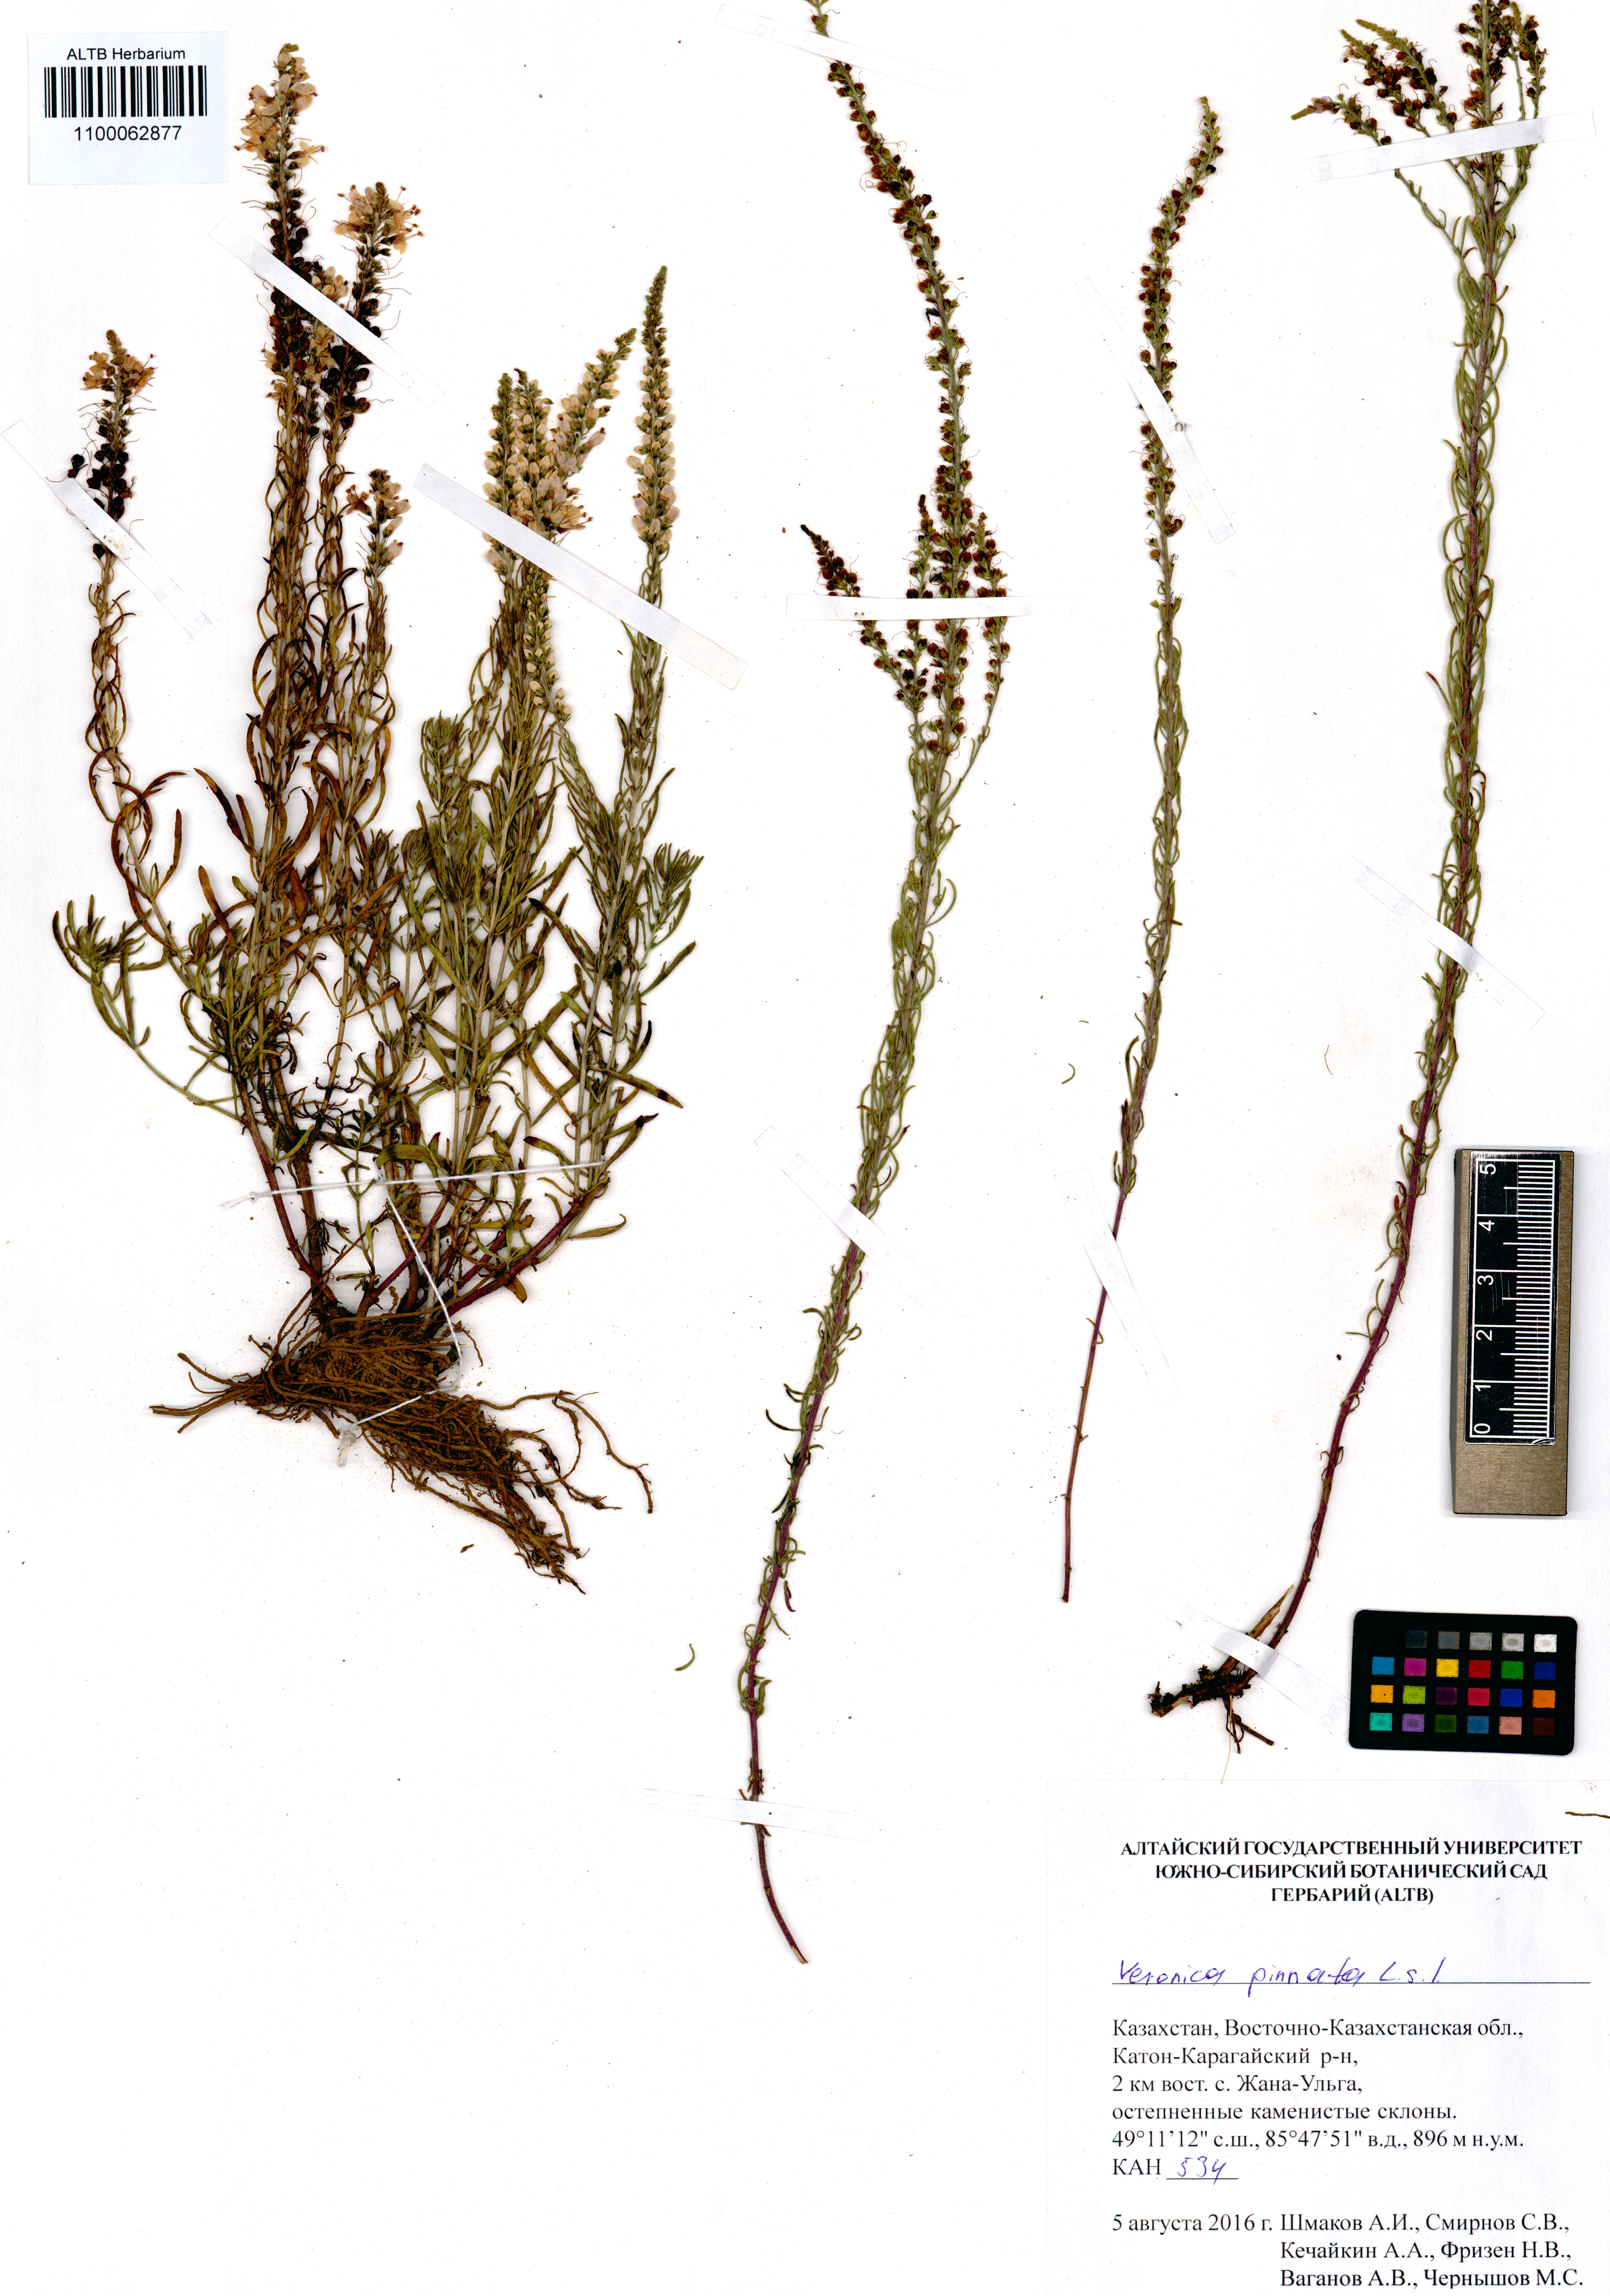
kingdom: Plantae
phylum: Tracheophyta
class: Magnoliopsida
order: Lamiales
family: Plantaginaceae
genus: Veronica
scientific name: Veronica pinnata
